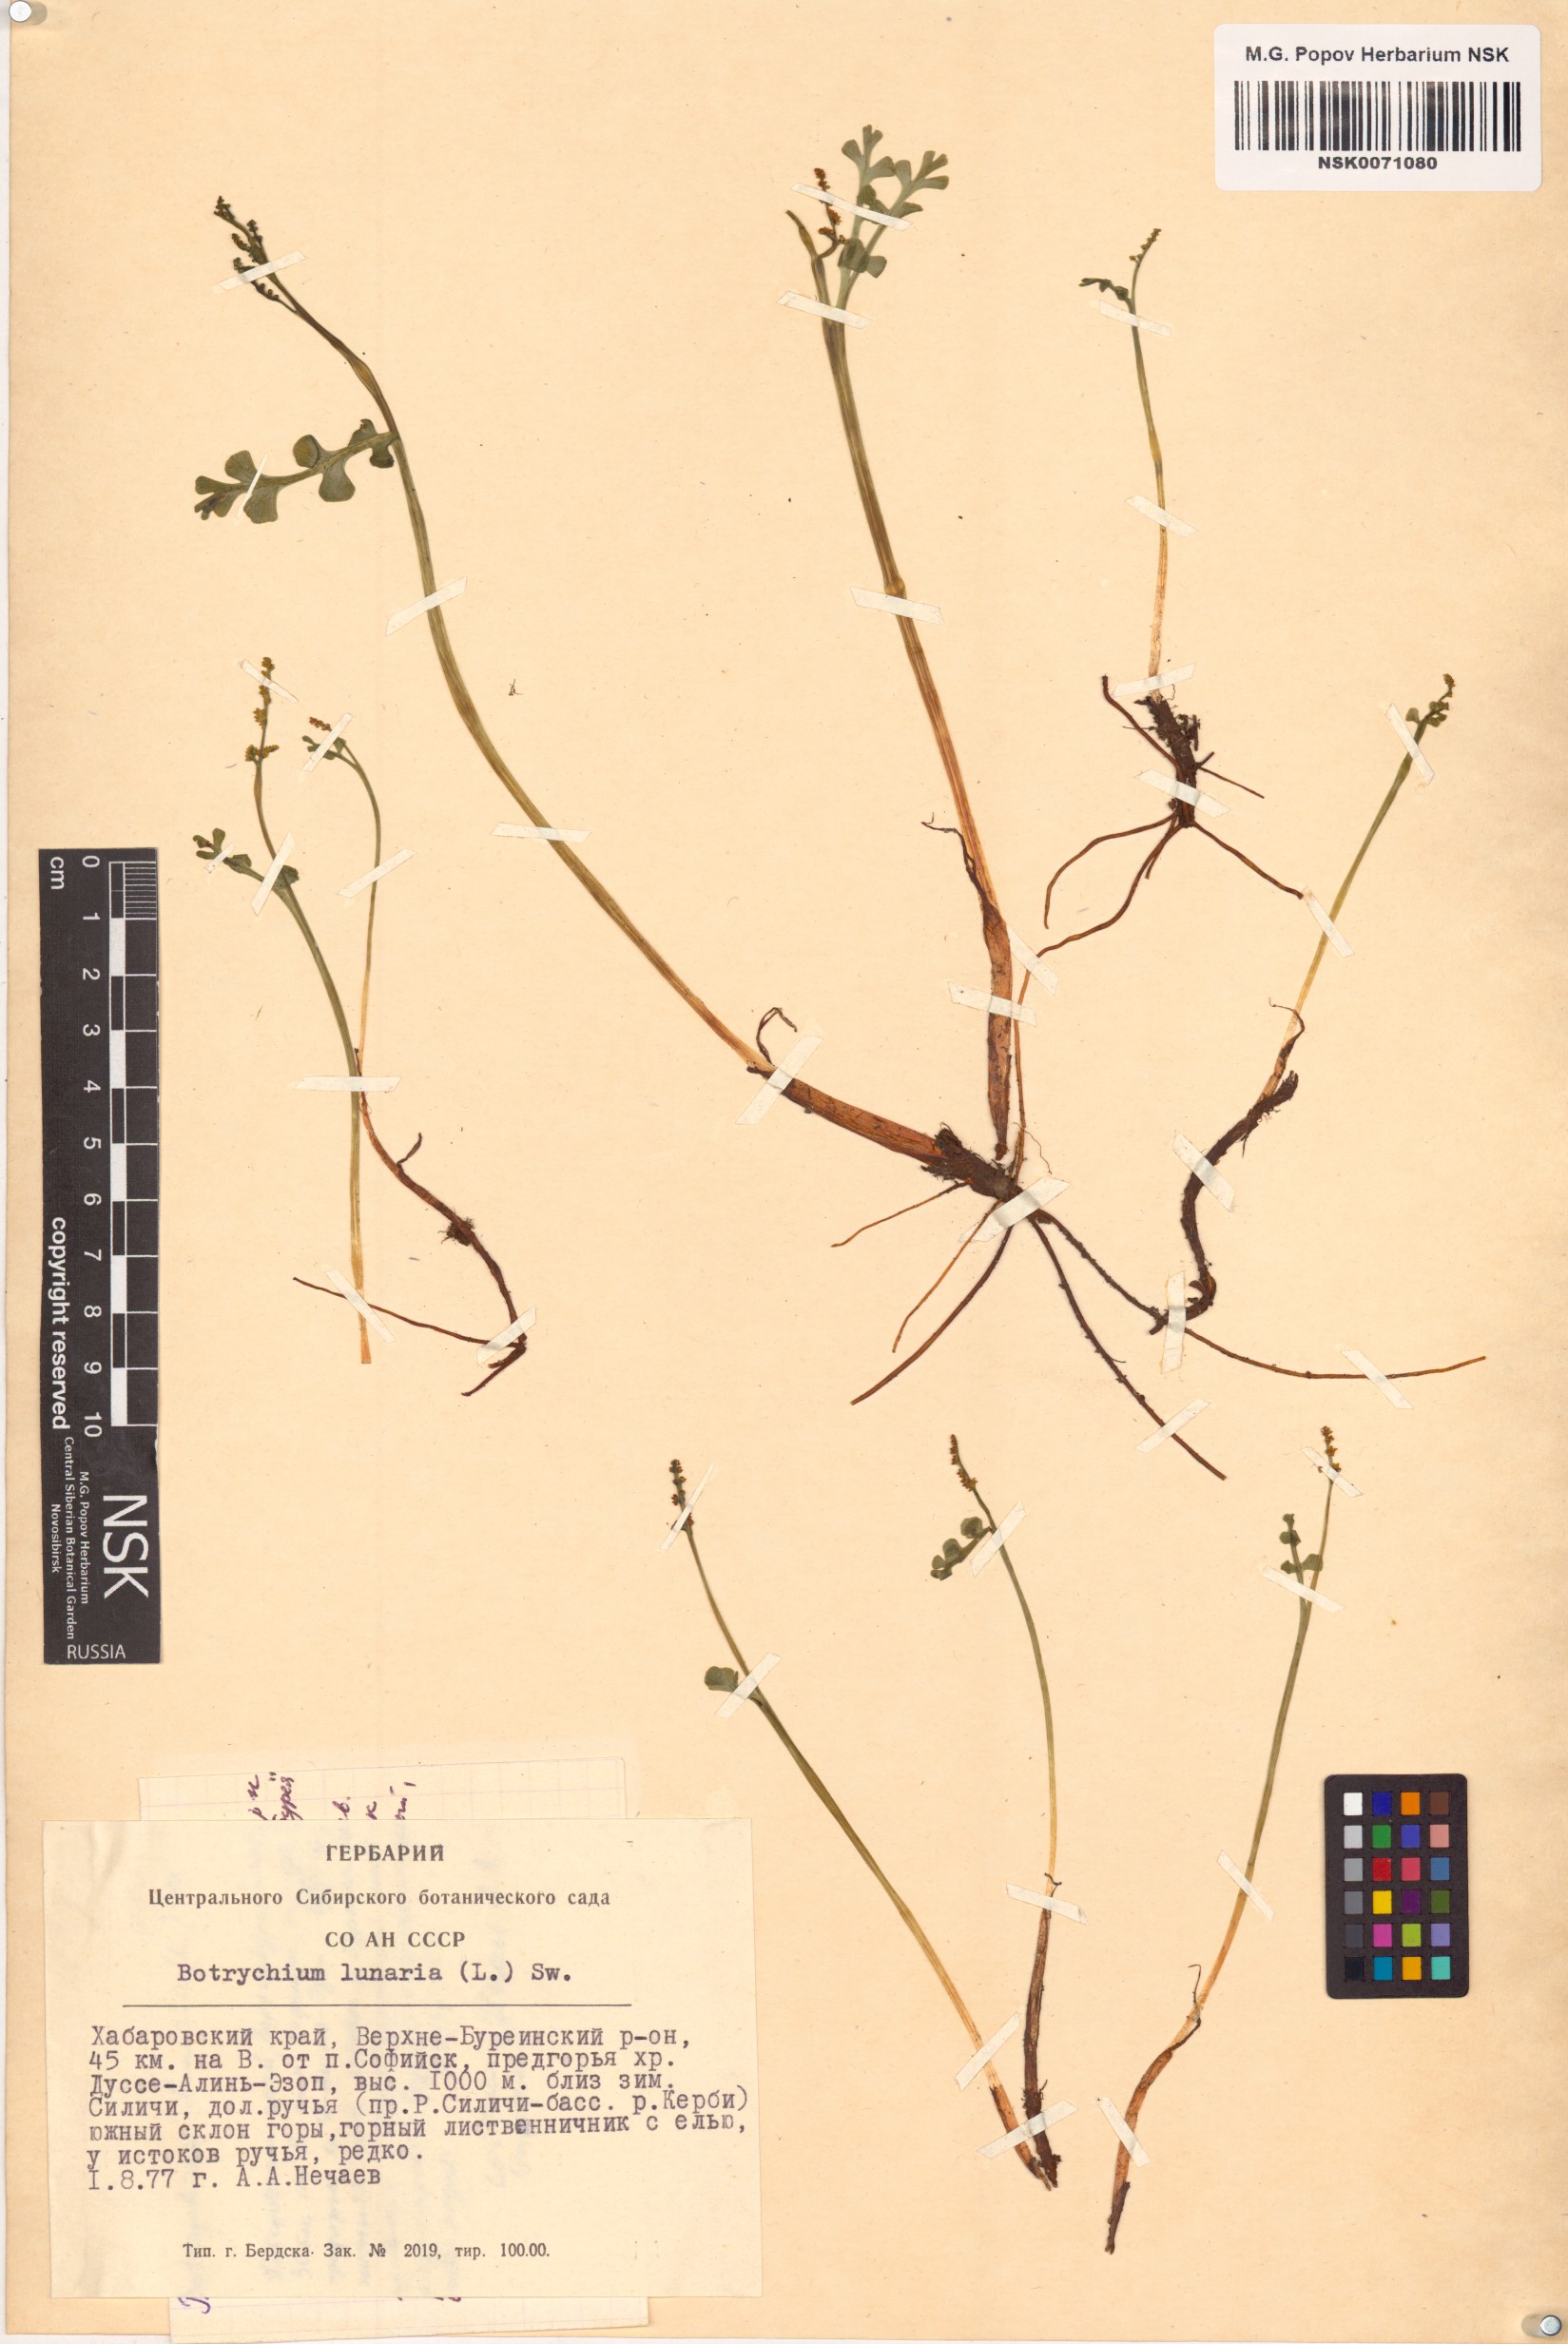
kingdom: Plantae
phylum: Tracheophyta
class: Polypodiopsida
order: Ophioglossales
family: Ophioglossaceae
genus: Botrychium
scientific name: Botrychium lunaria
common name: Moonwort
